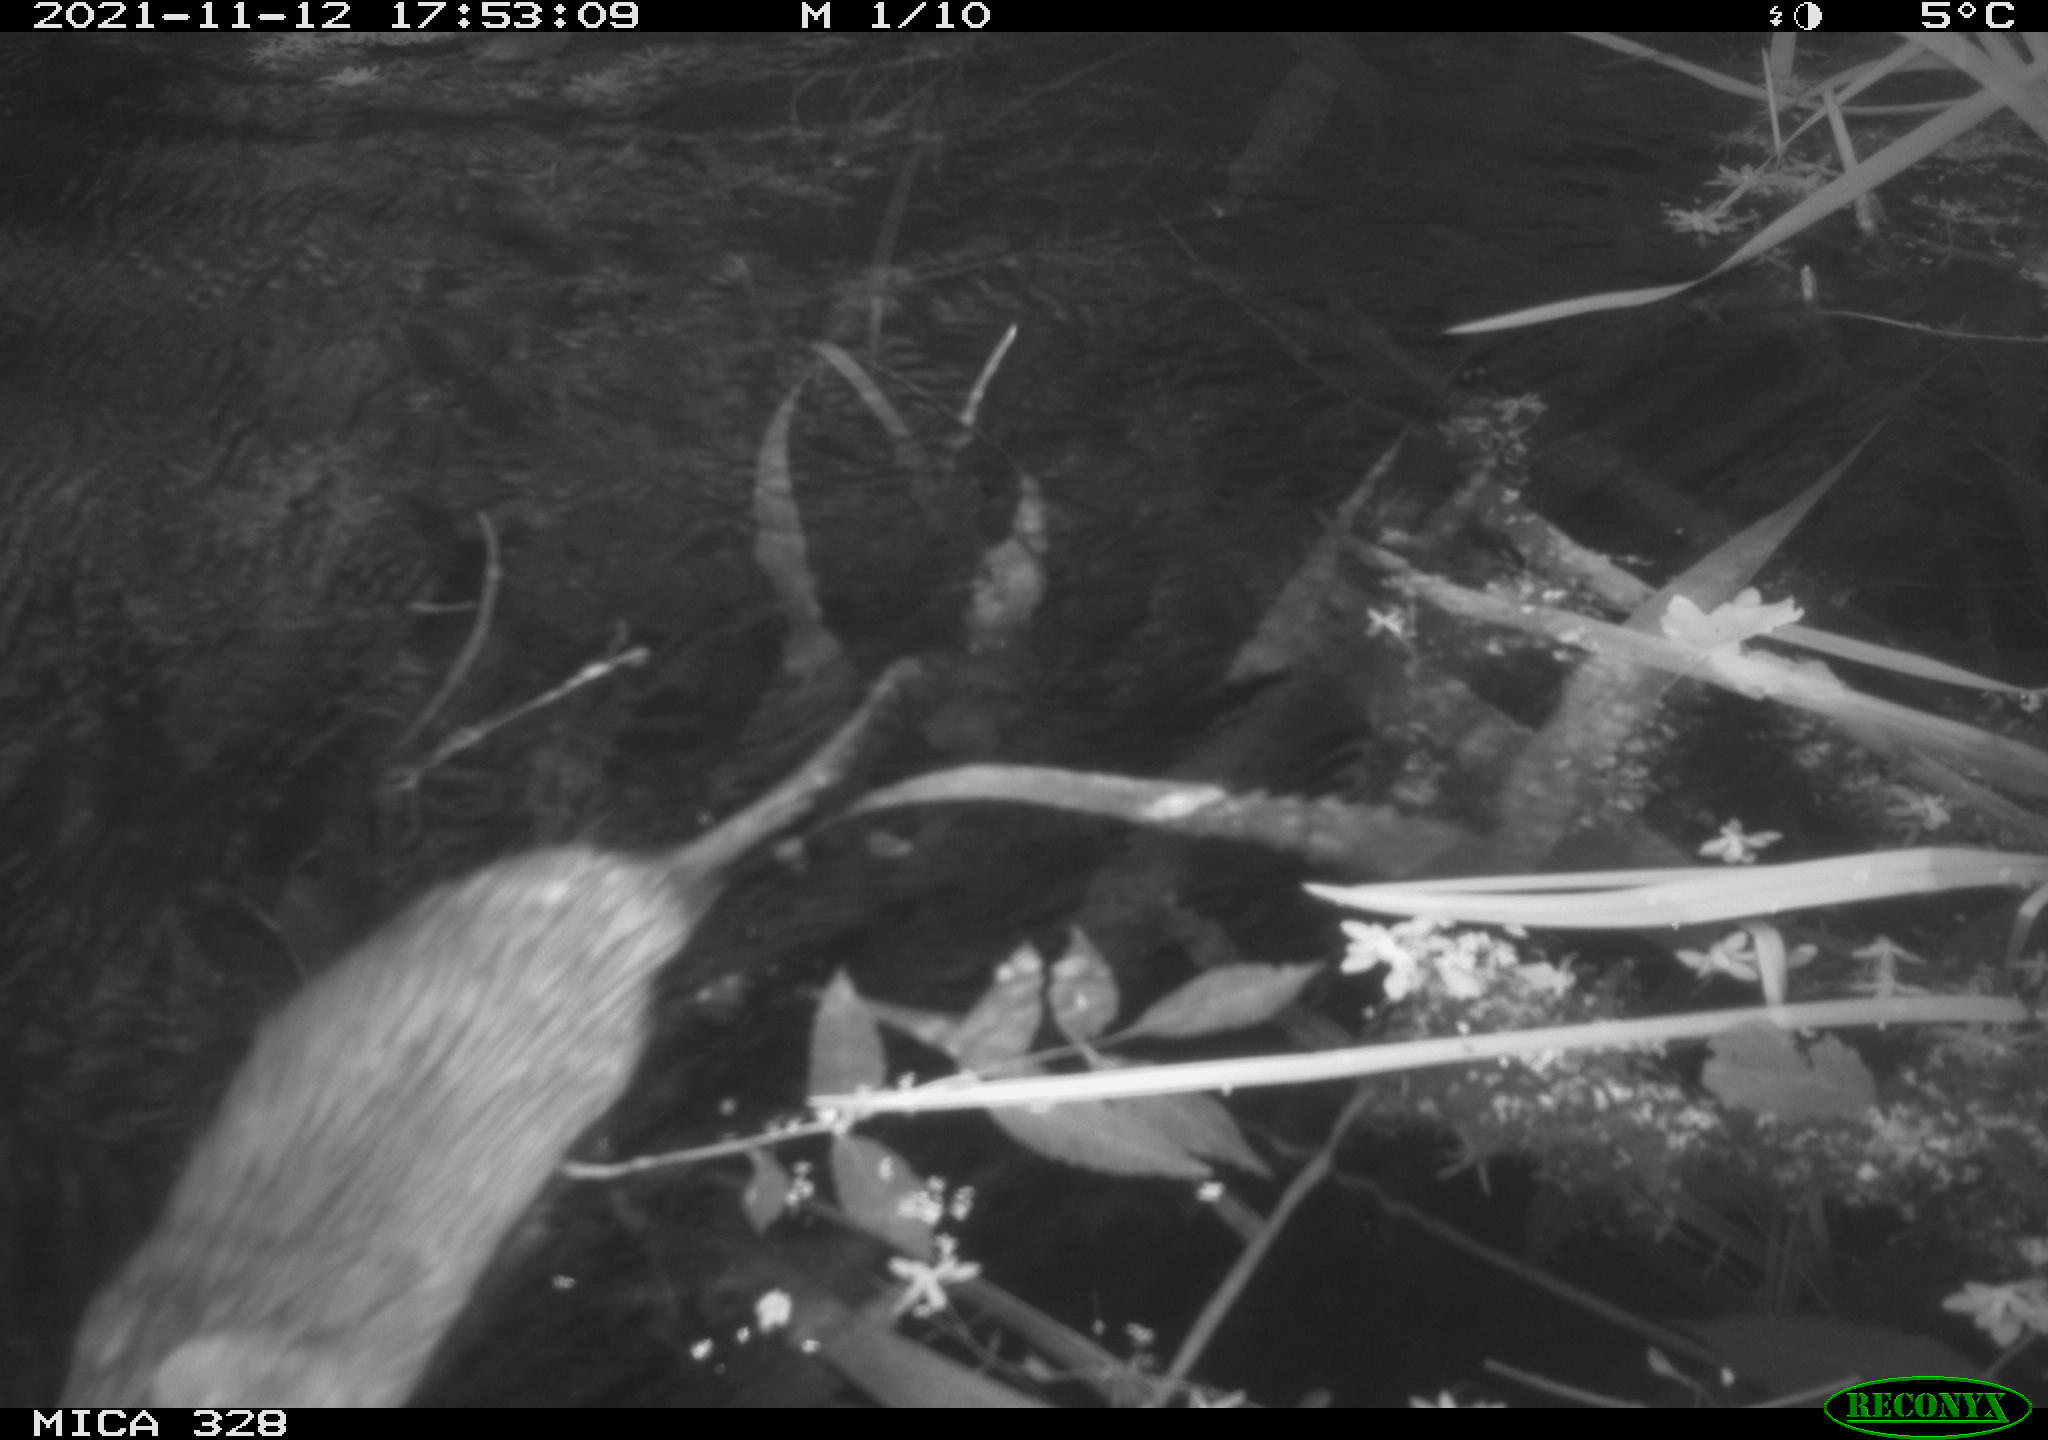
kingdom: Animalia
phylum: Chordata
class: Mammalia
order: Rodentia
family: Cricetidae
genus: Ondatra
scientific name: Ondatra zibethicus
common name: Muskrat
